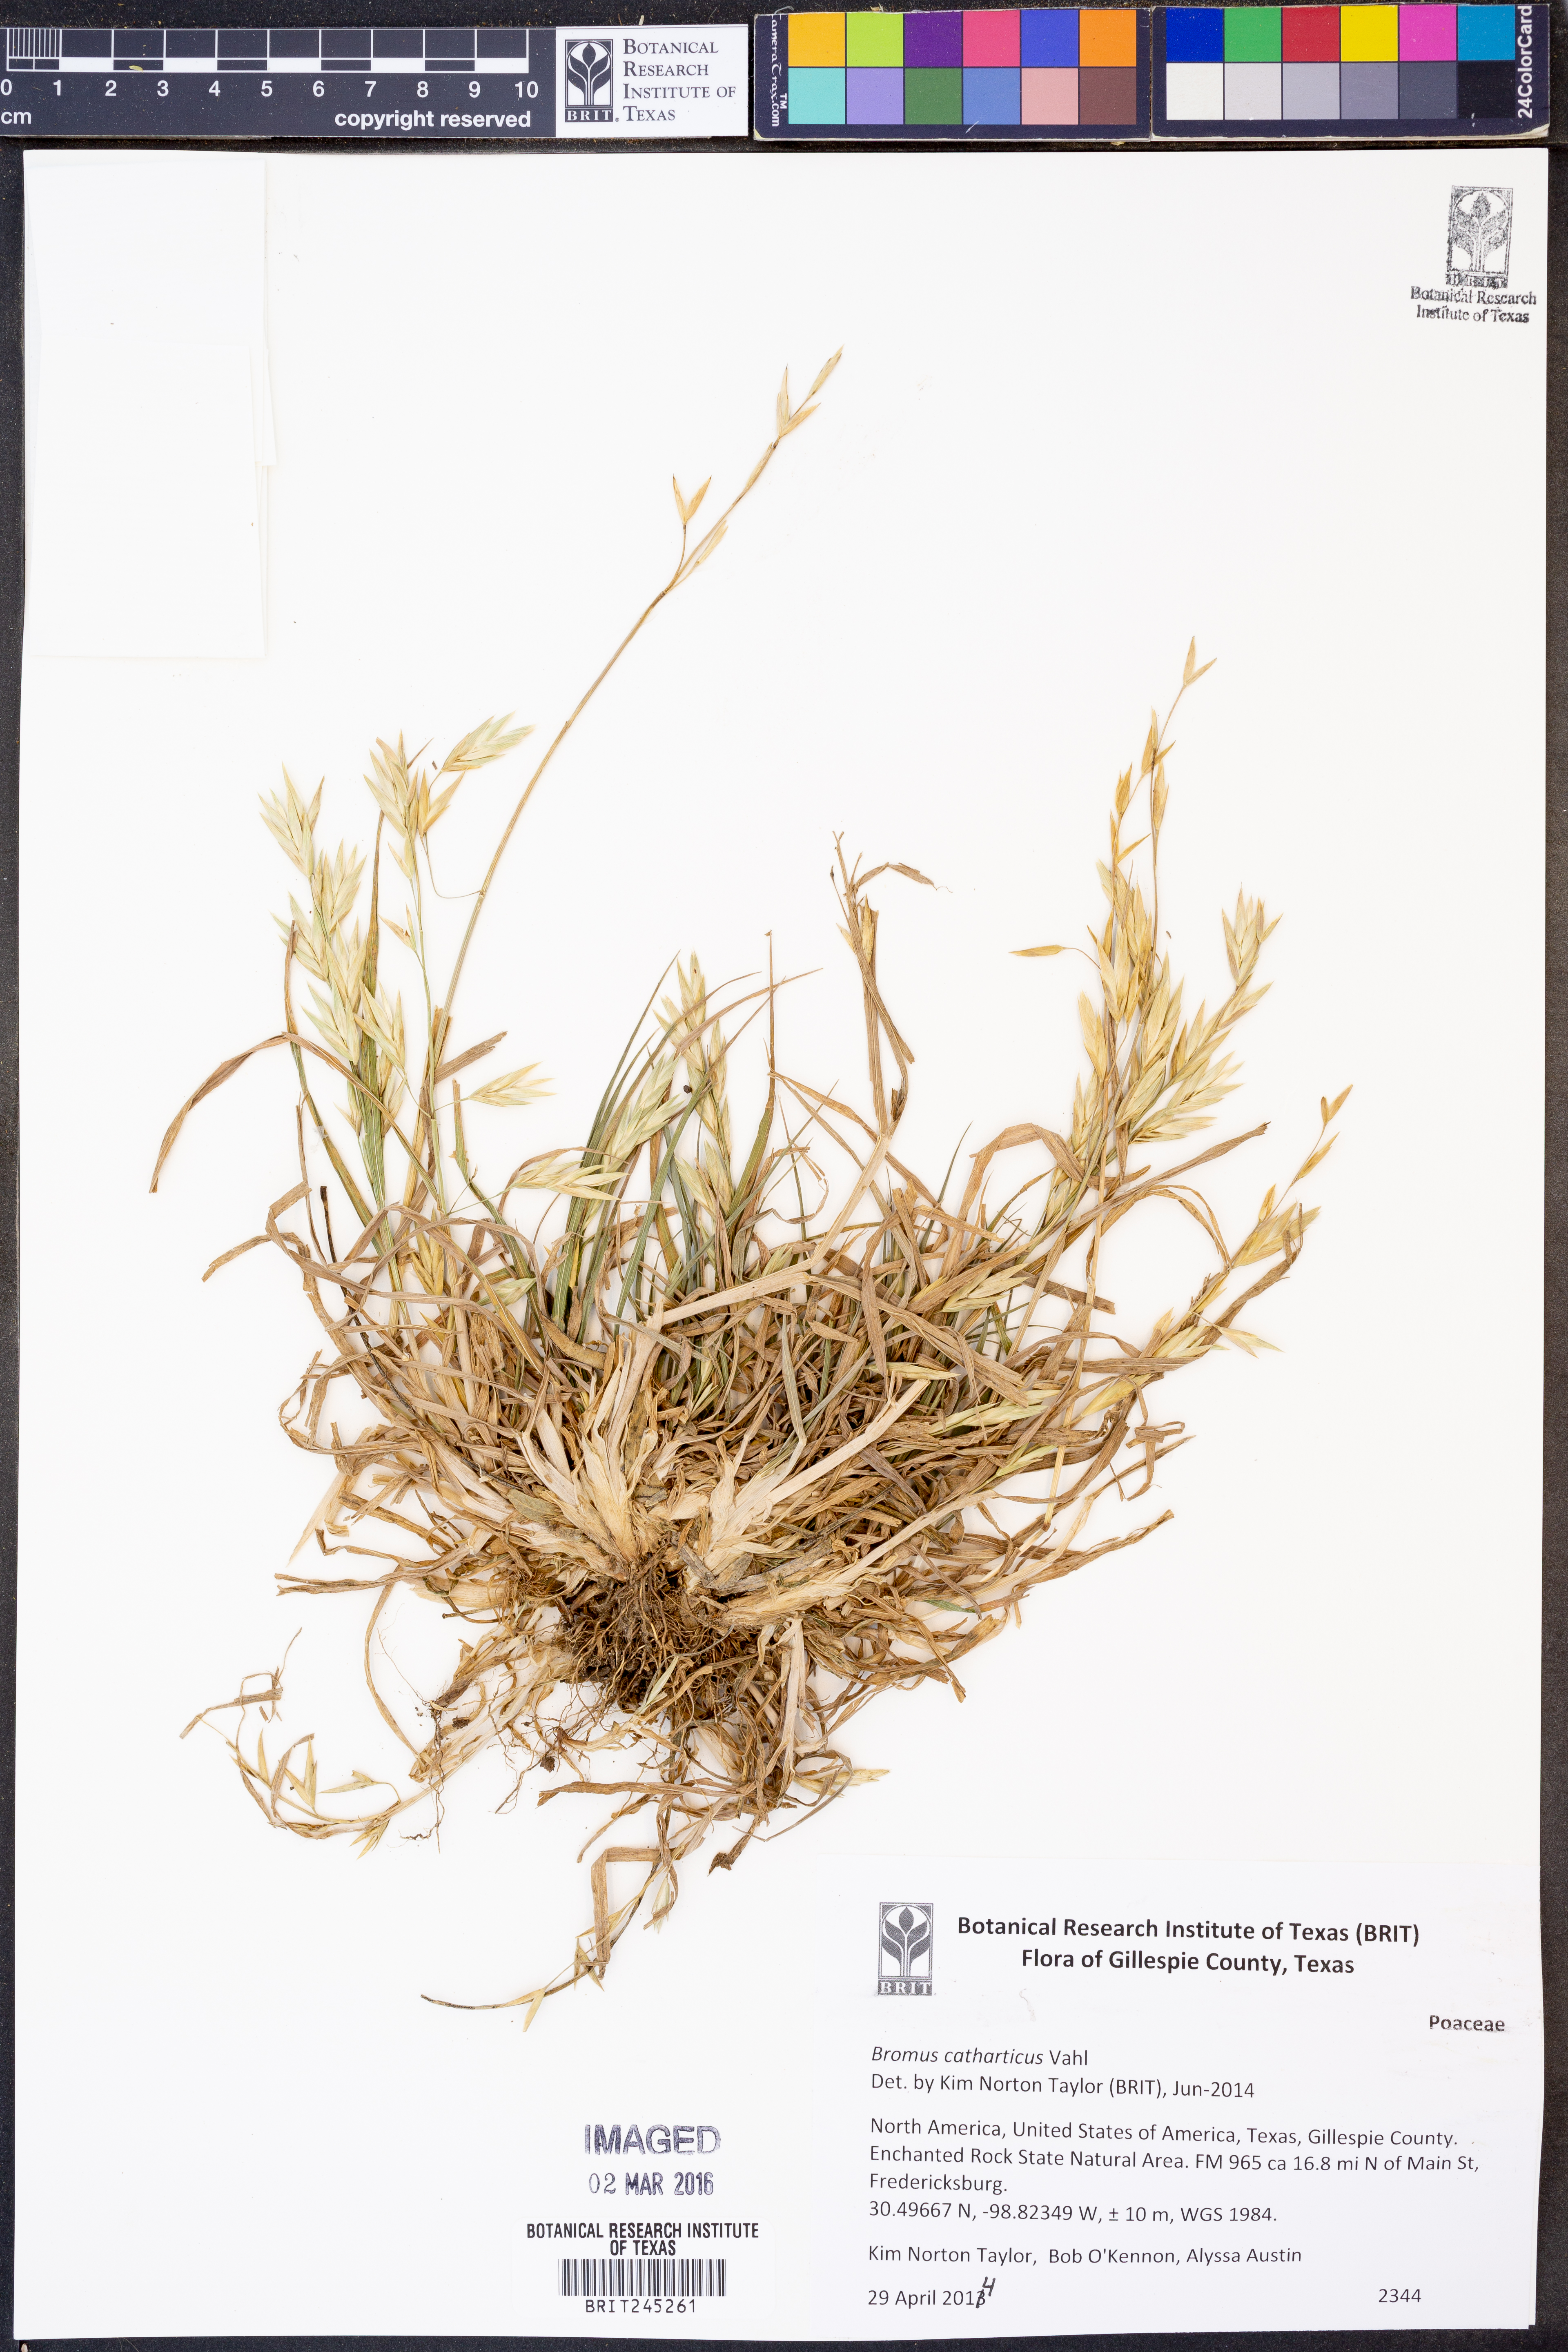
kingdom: Plantae
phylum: Tracheophyta
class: Liliopsida
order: Poales
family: Poaceae
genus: Bromus
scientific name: Bromus catharticus
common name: Rescuegrass
